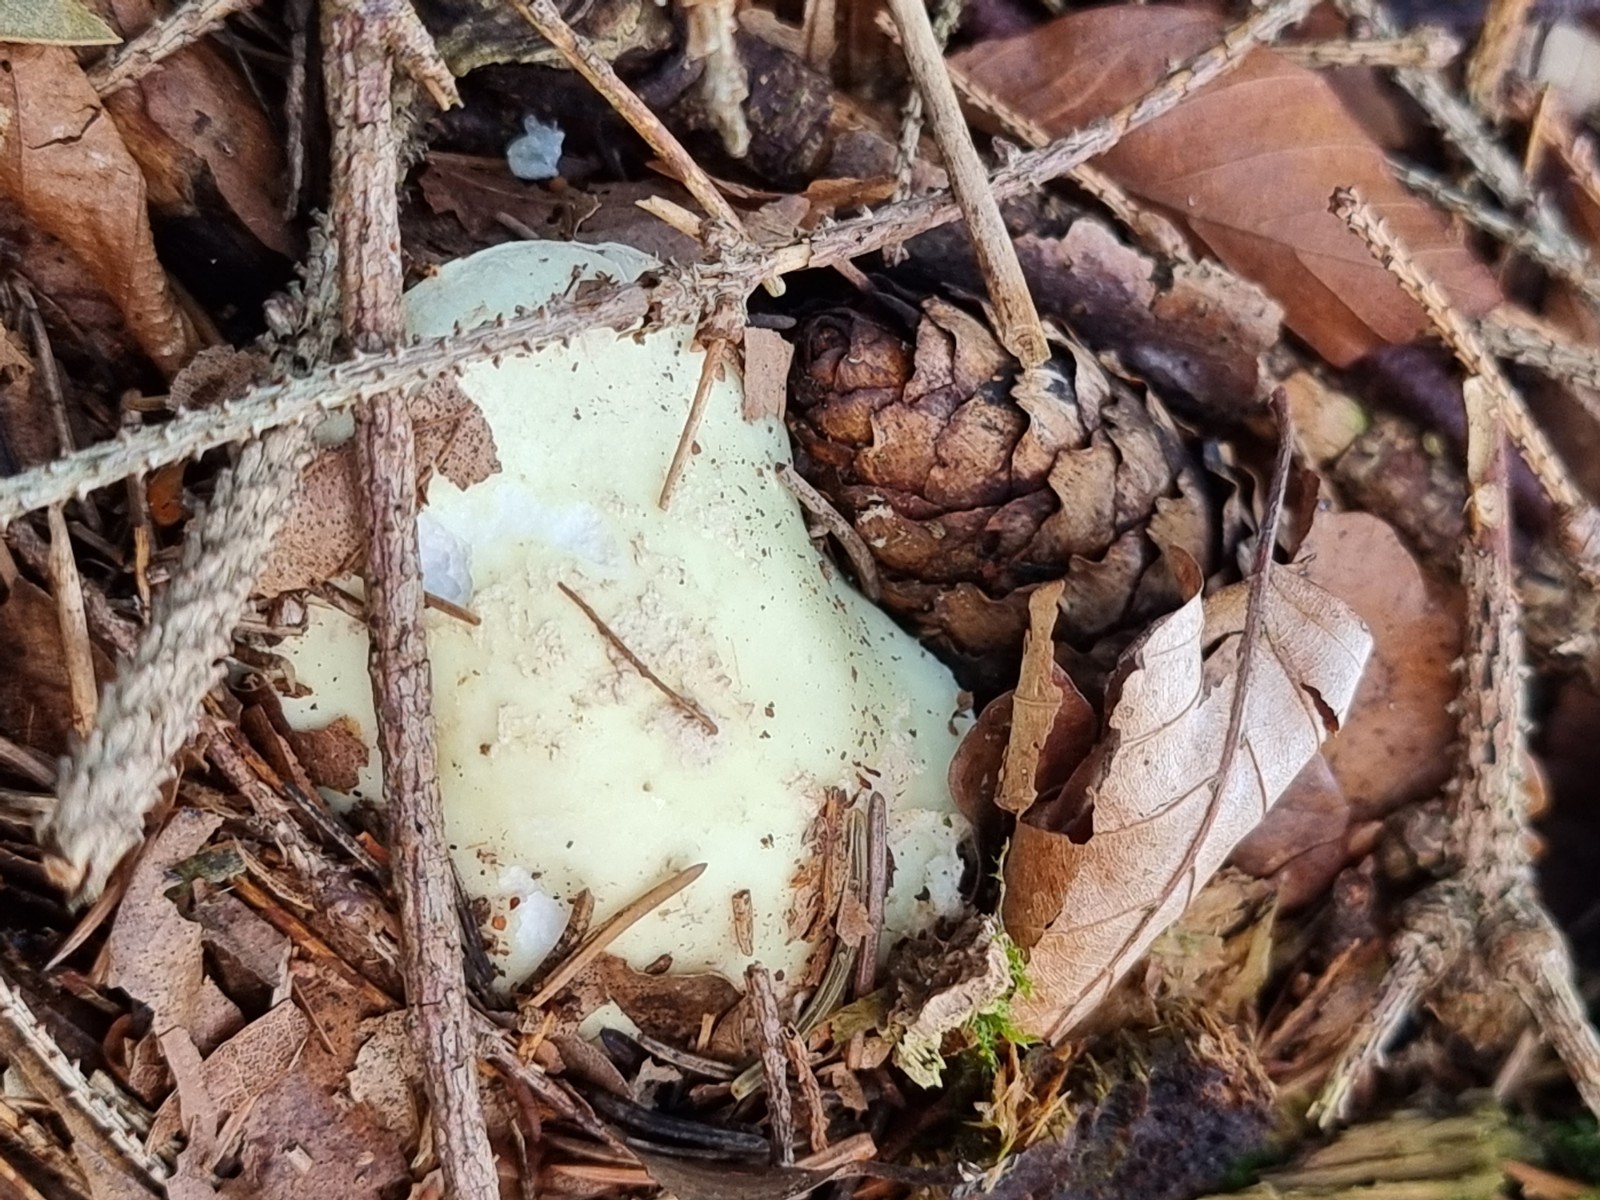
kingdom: Fungi
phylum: Basidiomycota
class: Agaricomycetes
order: Agaricales
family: Amanitaceae
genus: Amanita
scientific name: Amanita citrina
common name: kugleknoldet fluesvamp
